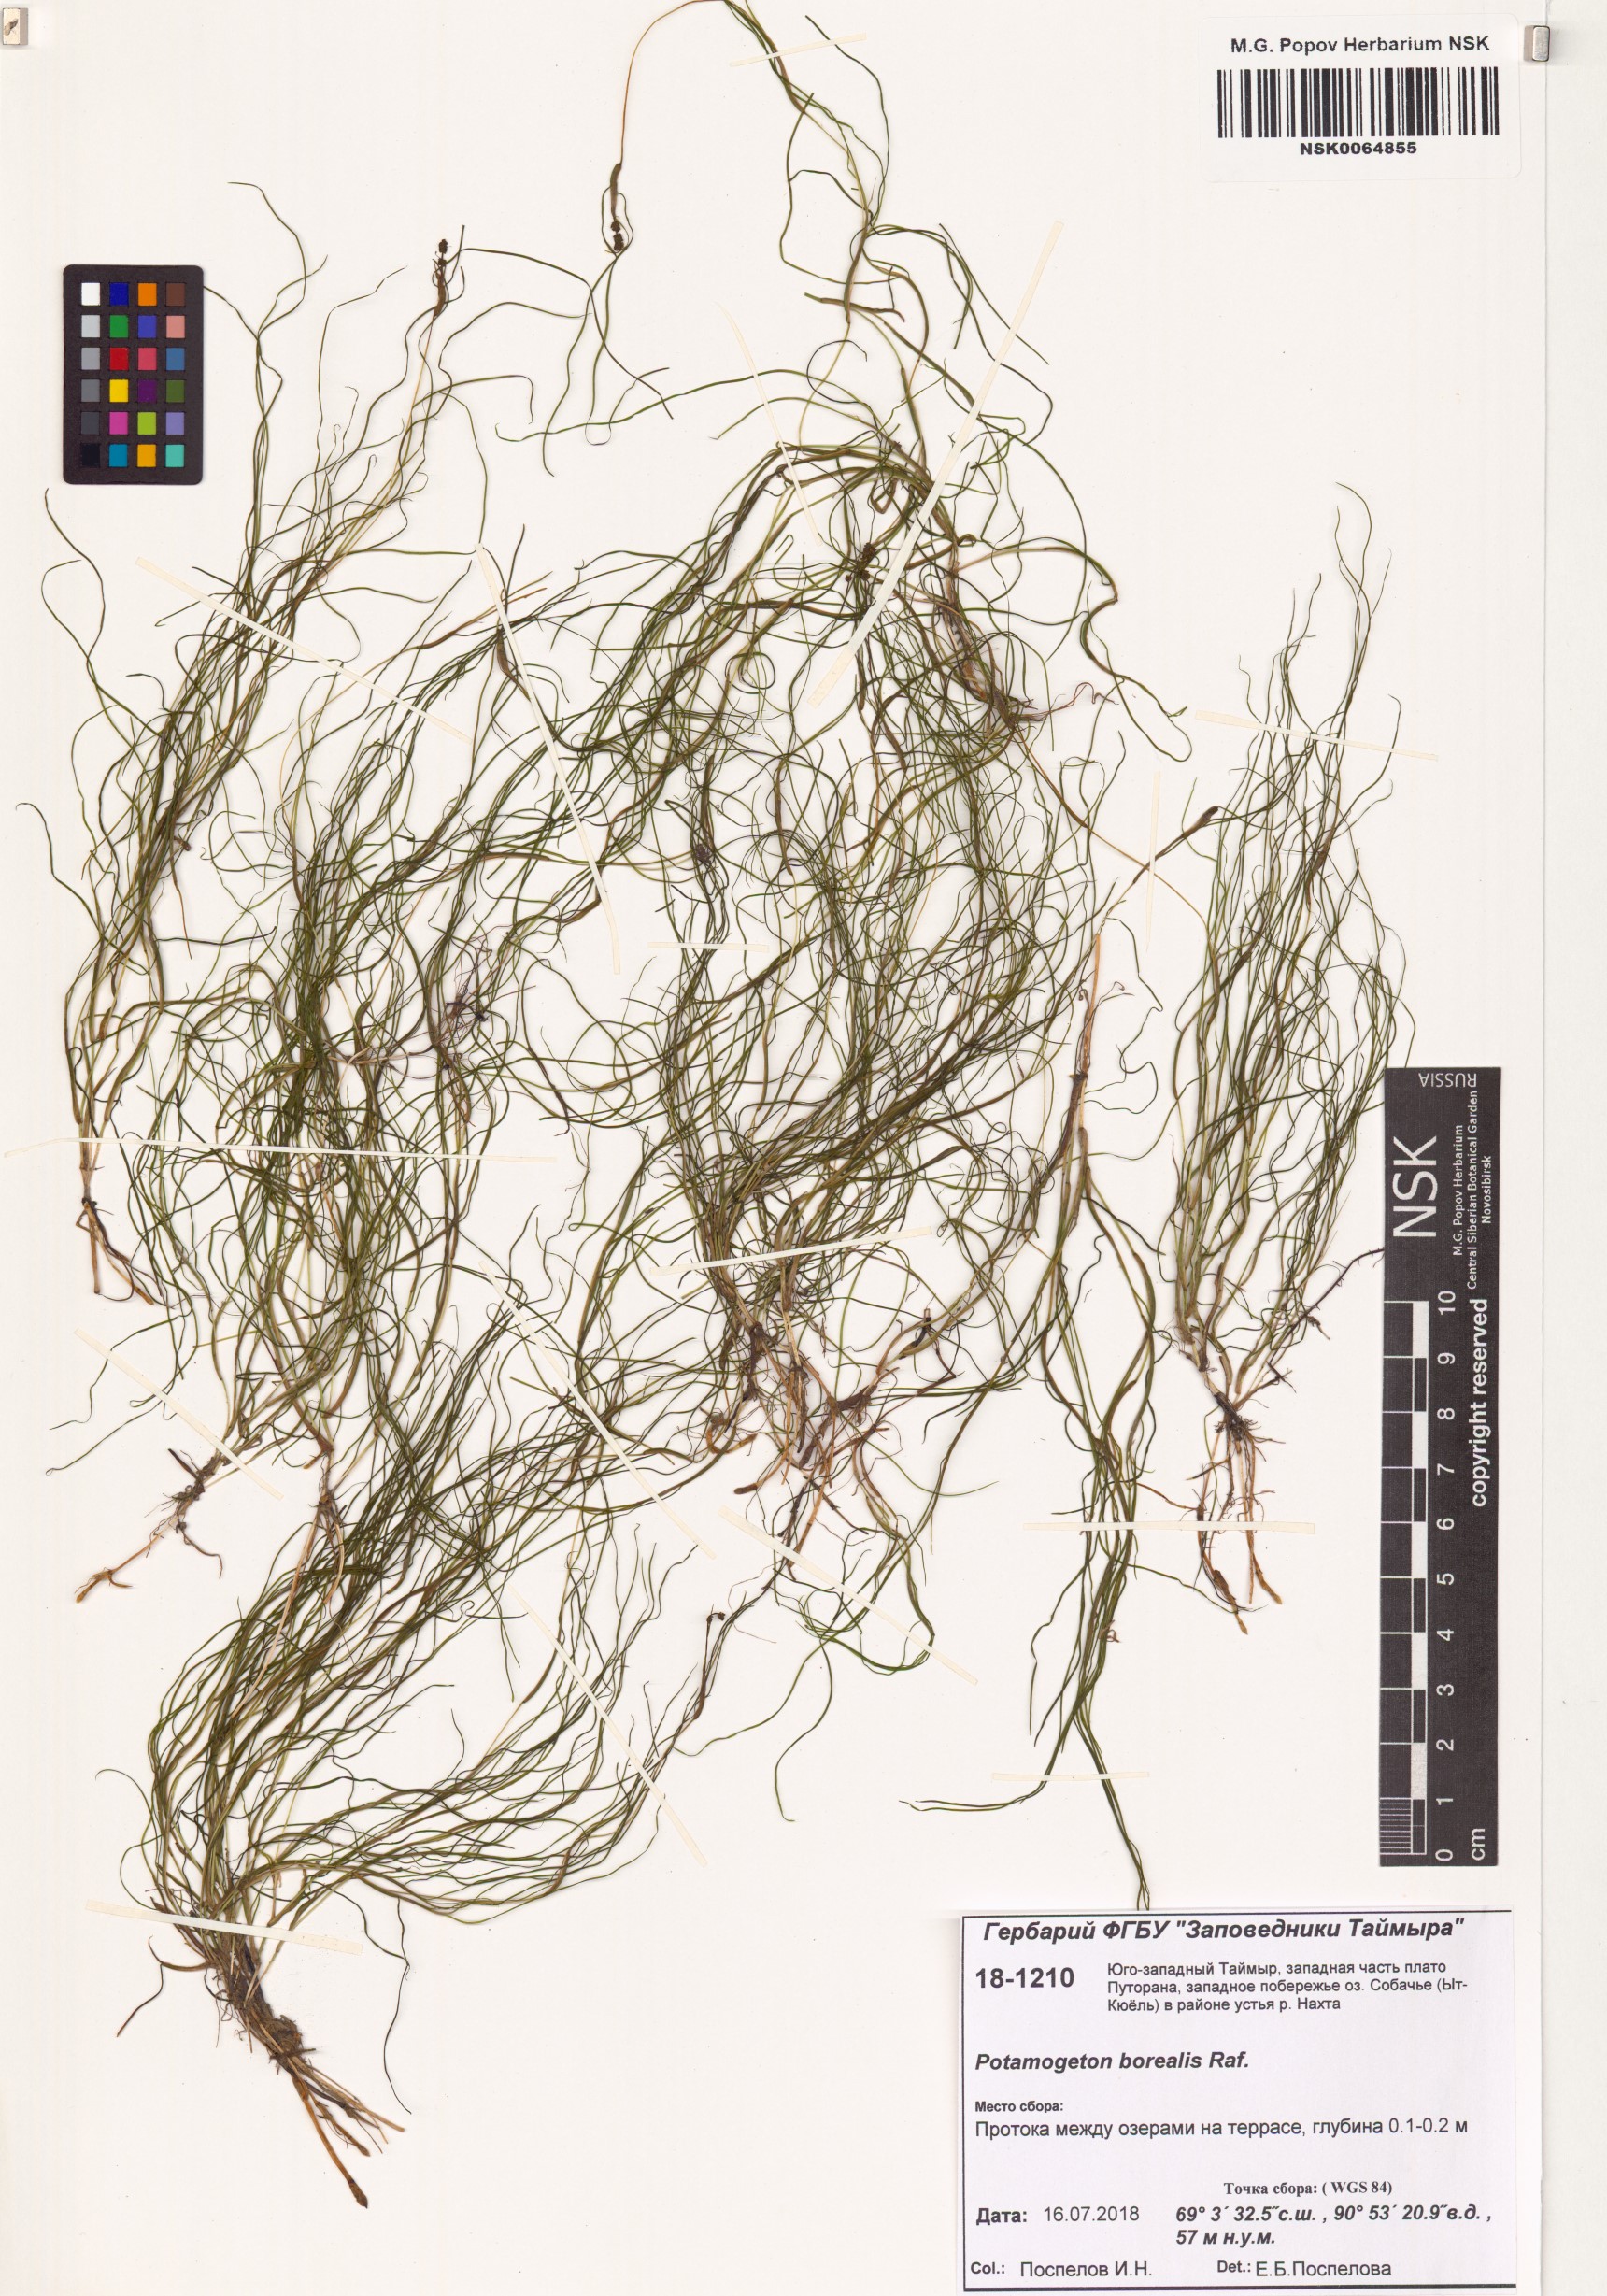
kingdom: Plantae
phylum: Tracheophyta
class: Liliopsida
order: Alismatales
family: Potamogetonaceae
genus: Stuckenia
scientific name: Stuckenia pectinata
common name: Sago pondweed
